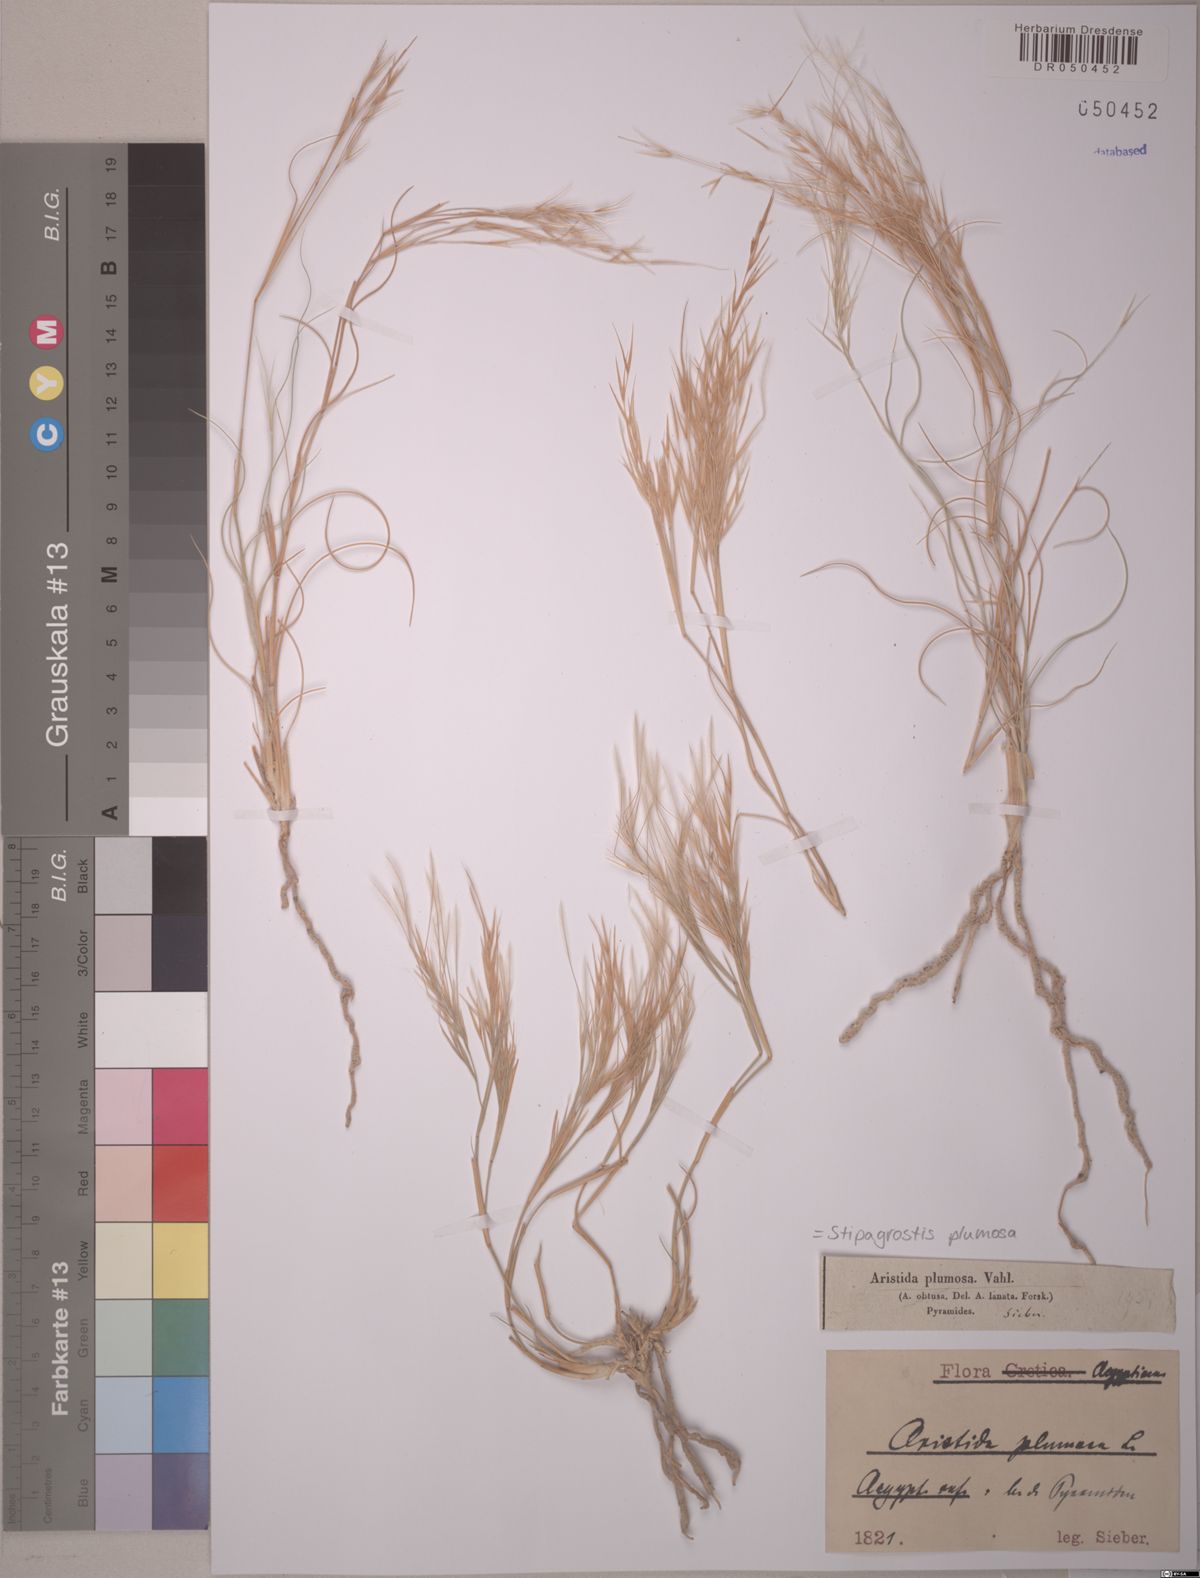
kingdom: Plantae
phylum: Tracheophyta
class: Liliopsida
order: Poales
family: Poaceae
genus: Stipagrostis
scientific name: Stipagrostis plumosa
